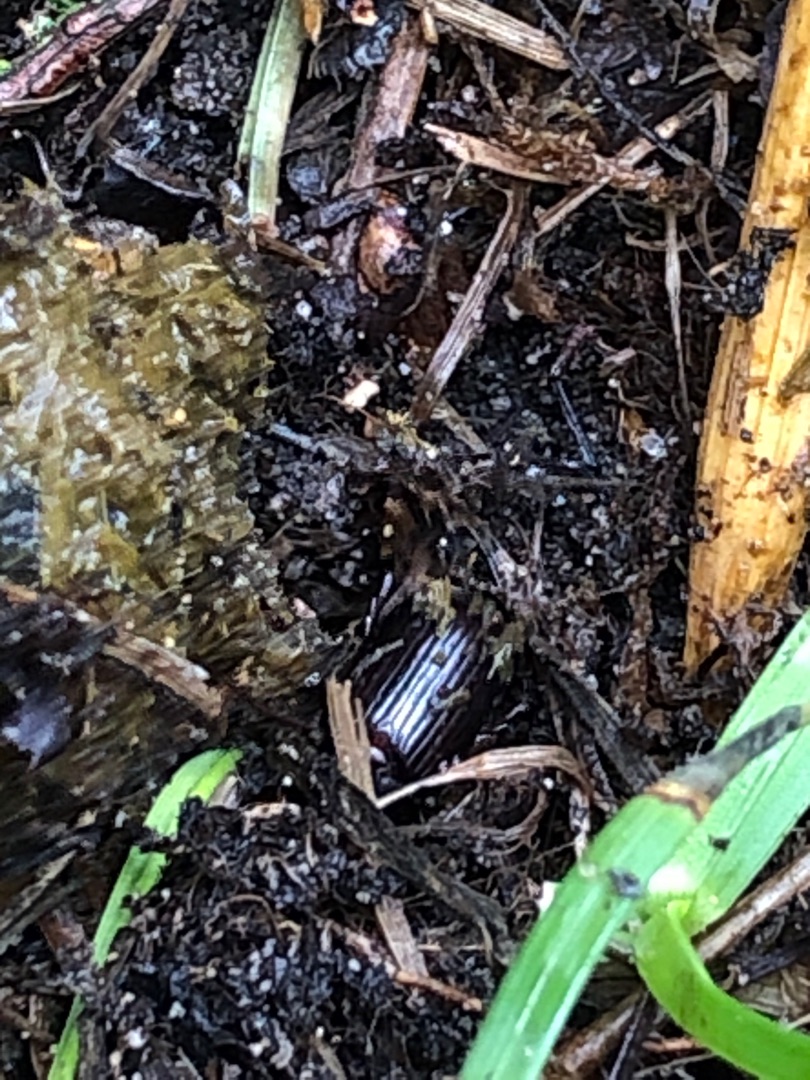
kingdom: Animalia
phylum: Arthropoda
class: Insecta
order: Coleoptera
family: Scarabaeidae
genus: Acrossus
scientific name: Acrossus rufipes
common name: Rødbenet møgbille
